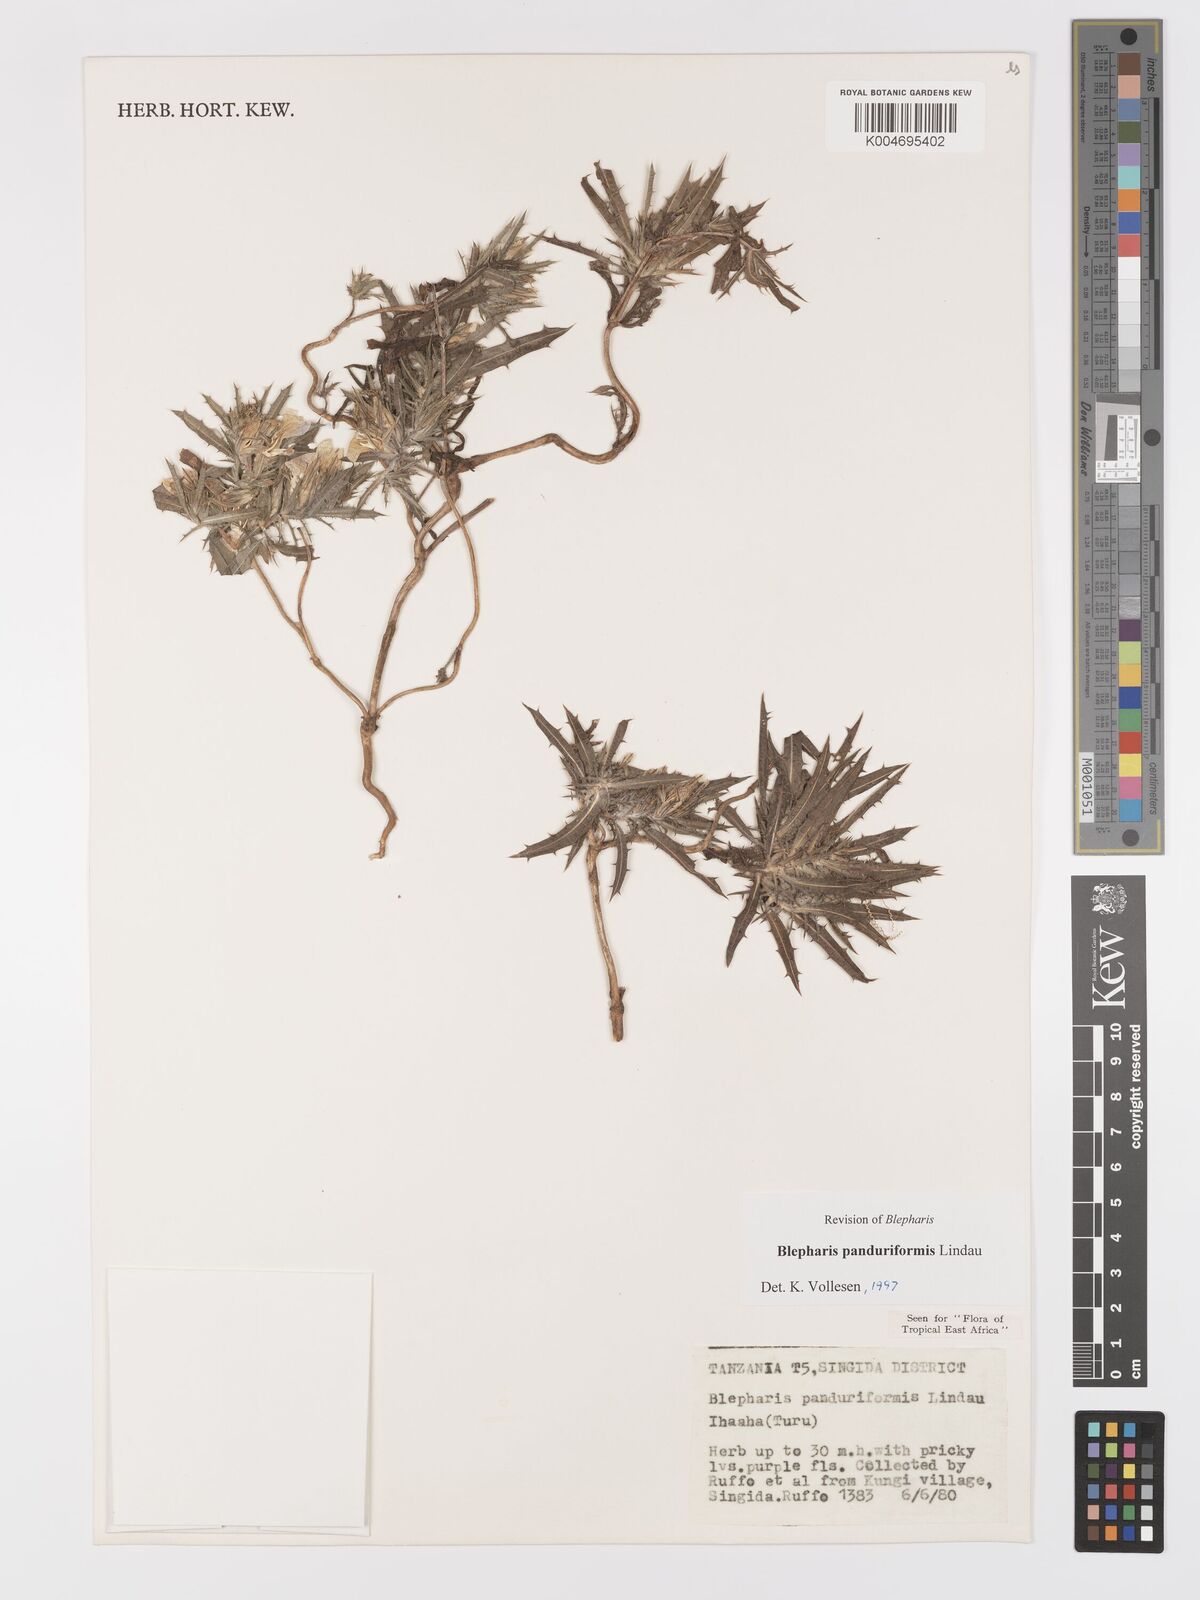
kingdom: Plantae
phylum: Tracheophyta
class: Magnoliopsida
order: Lamiales
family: Acanthaceae
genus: Blepharis
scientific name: Blepharis panduriformis
